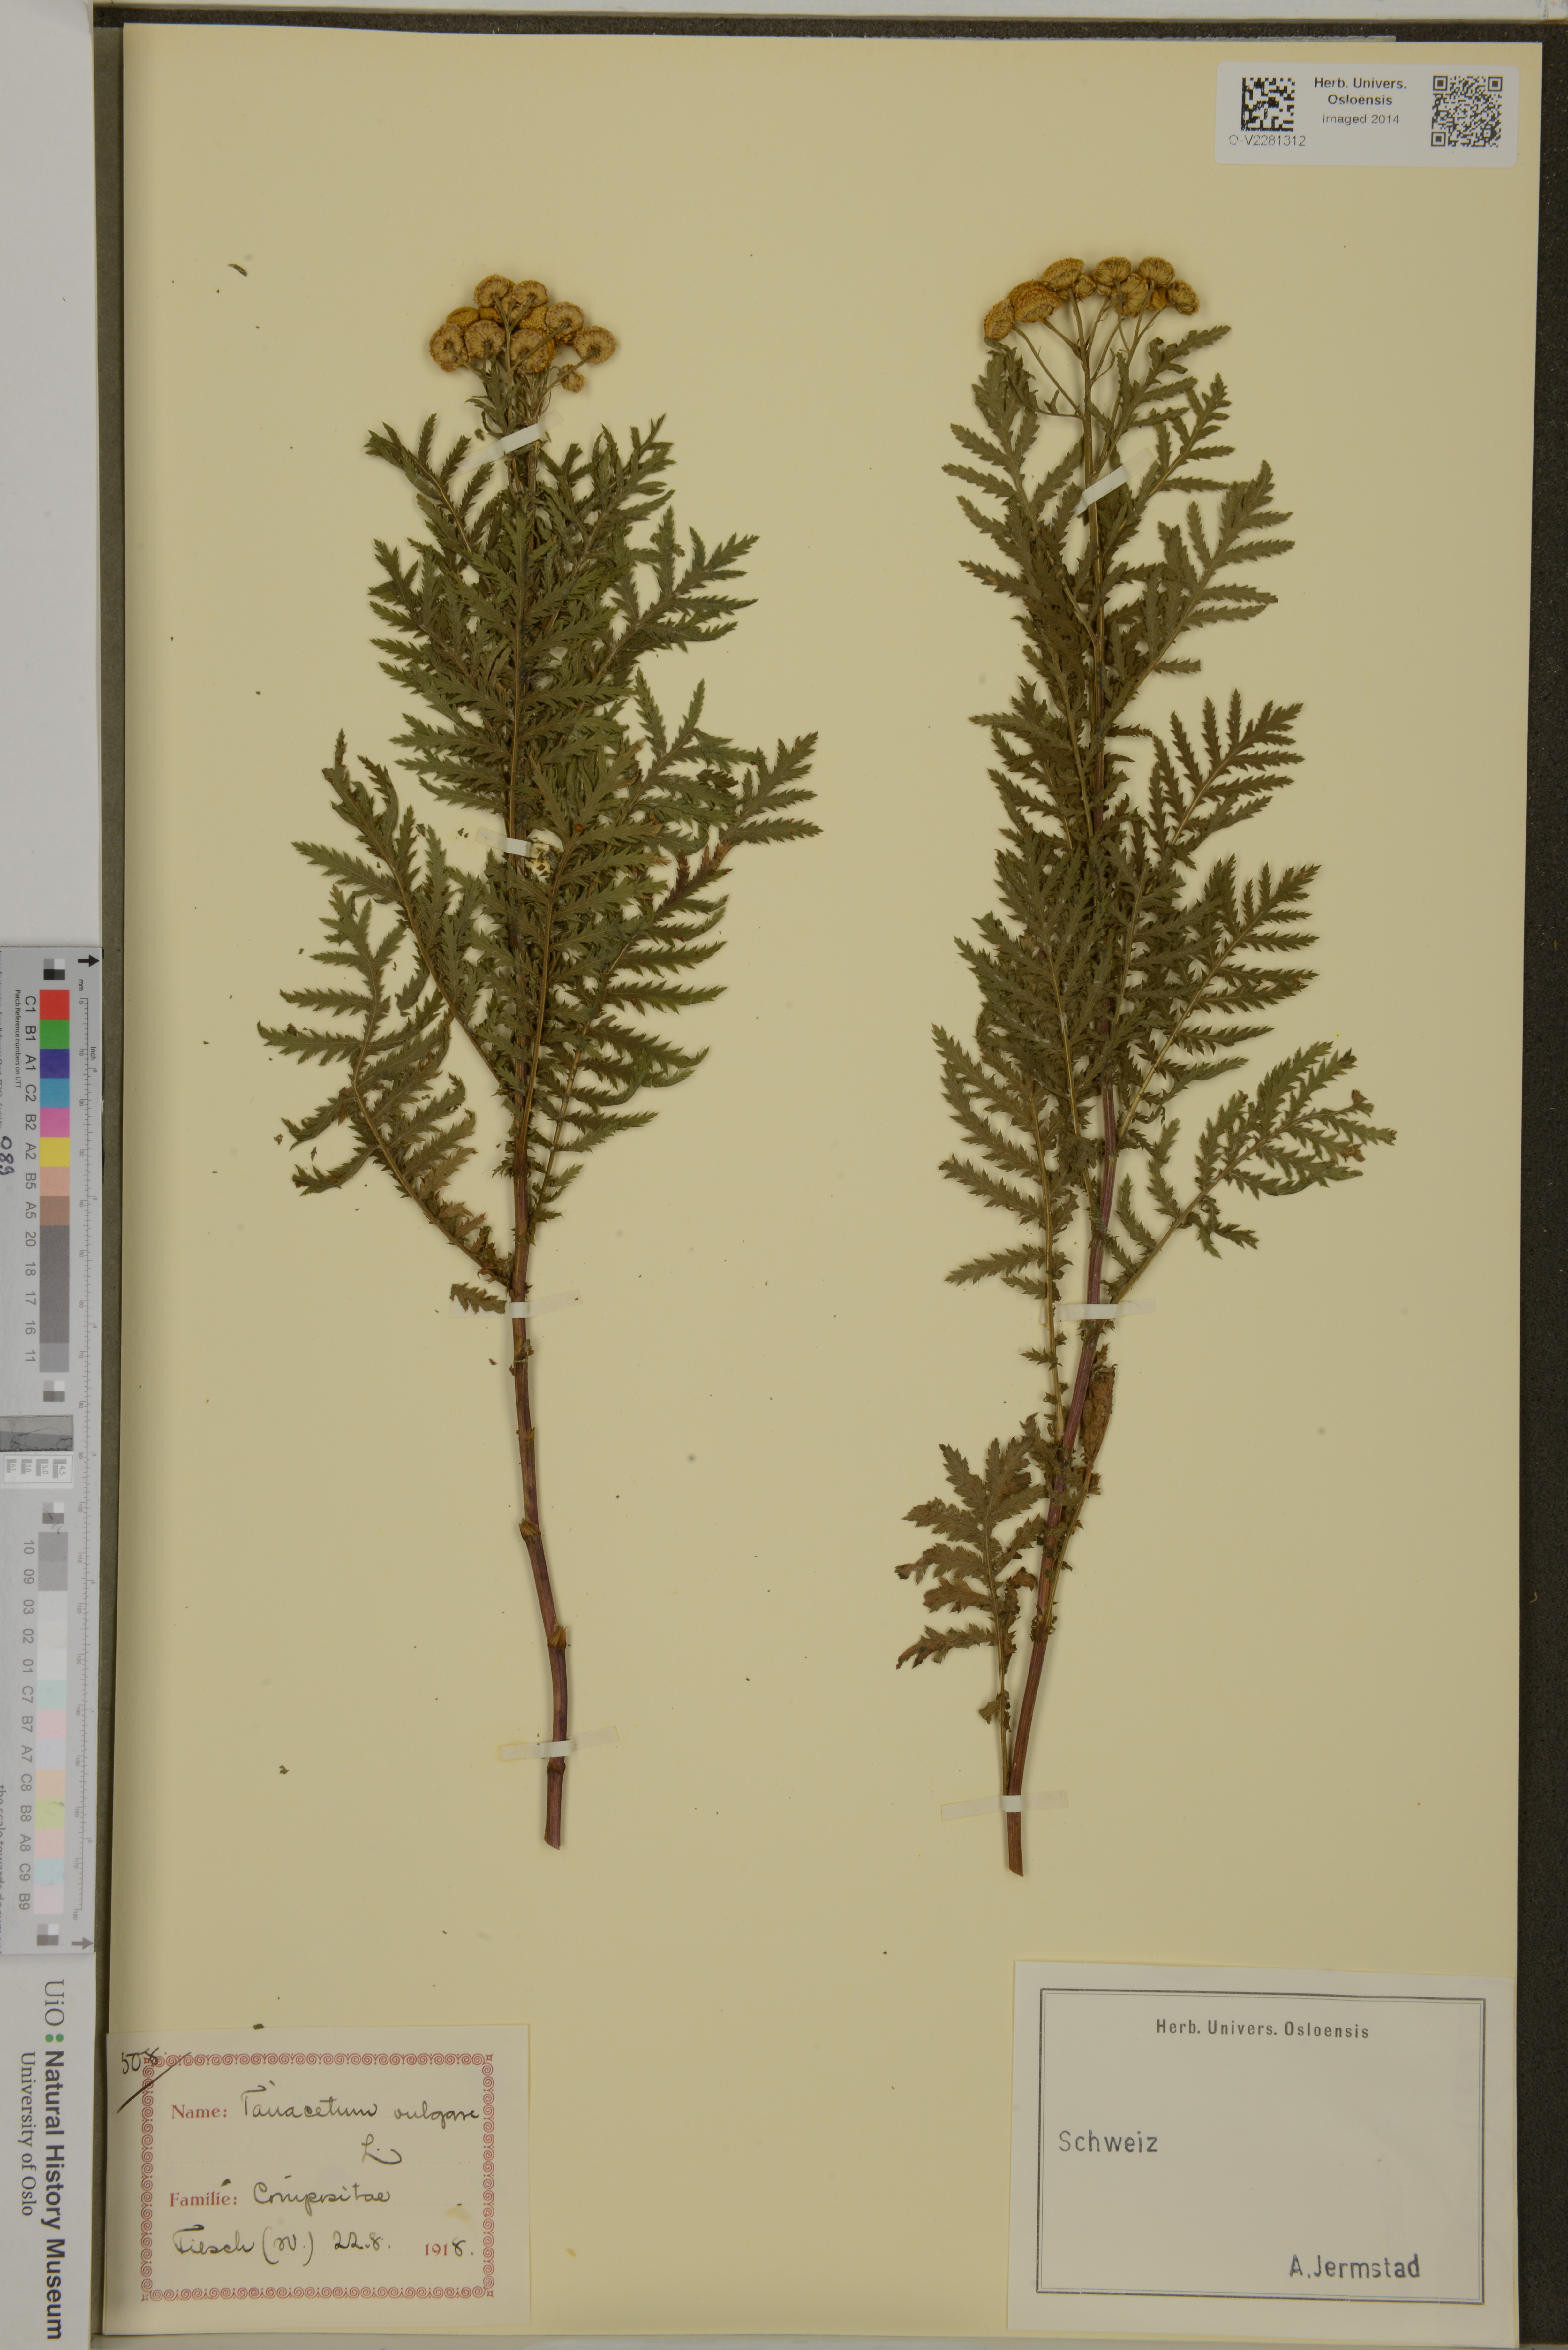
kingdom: Plantae
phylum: Tracheophyta
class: Magnoliopsida
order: Asterales
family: Asteraceae
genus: Tanacetum
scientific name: Tanacetum vulgare
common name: Common tansy
